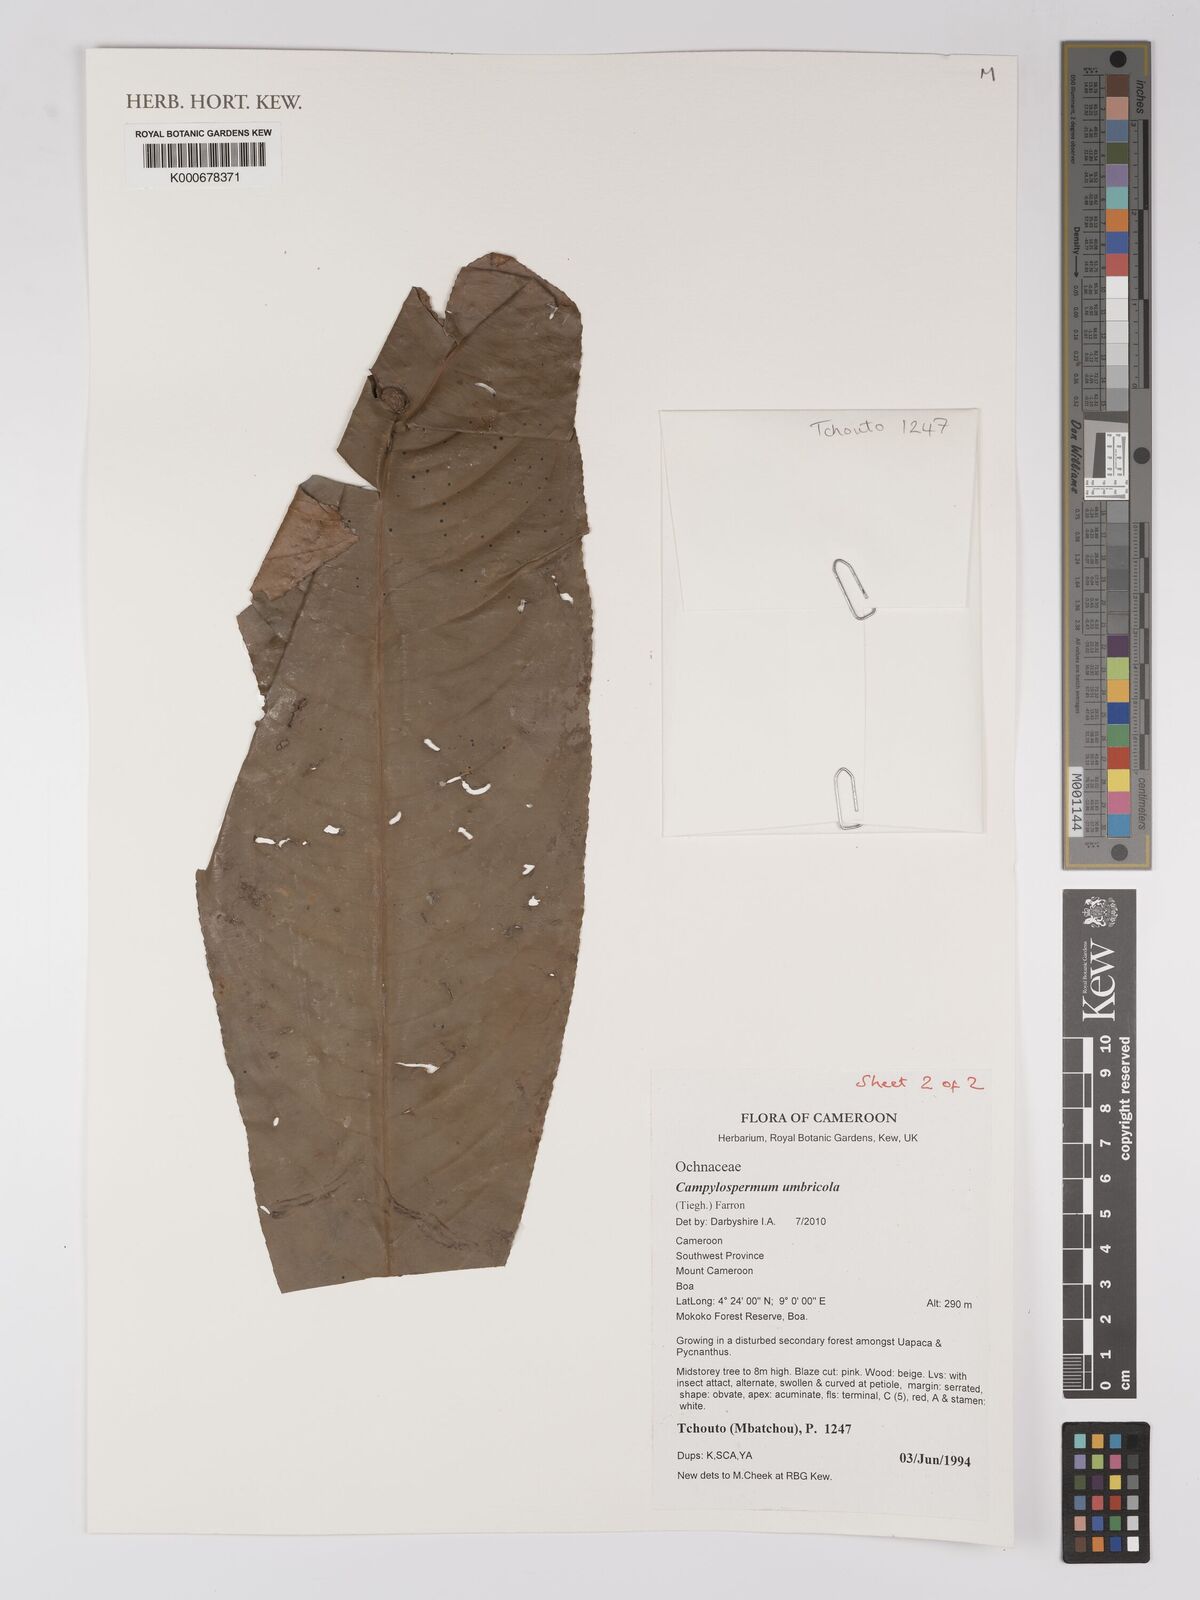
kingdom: Plantae
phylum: Tracheophyta
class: Magnoliopsida
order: Malpighiales
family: Ochnaceae
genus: Campylospermum
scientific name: Campylospermum umbricola
